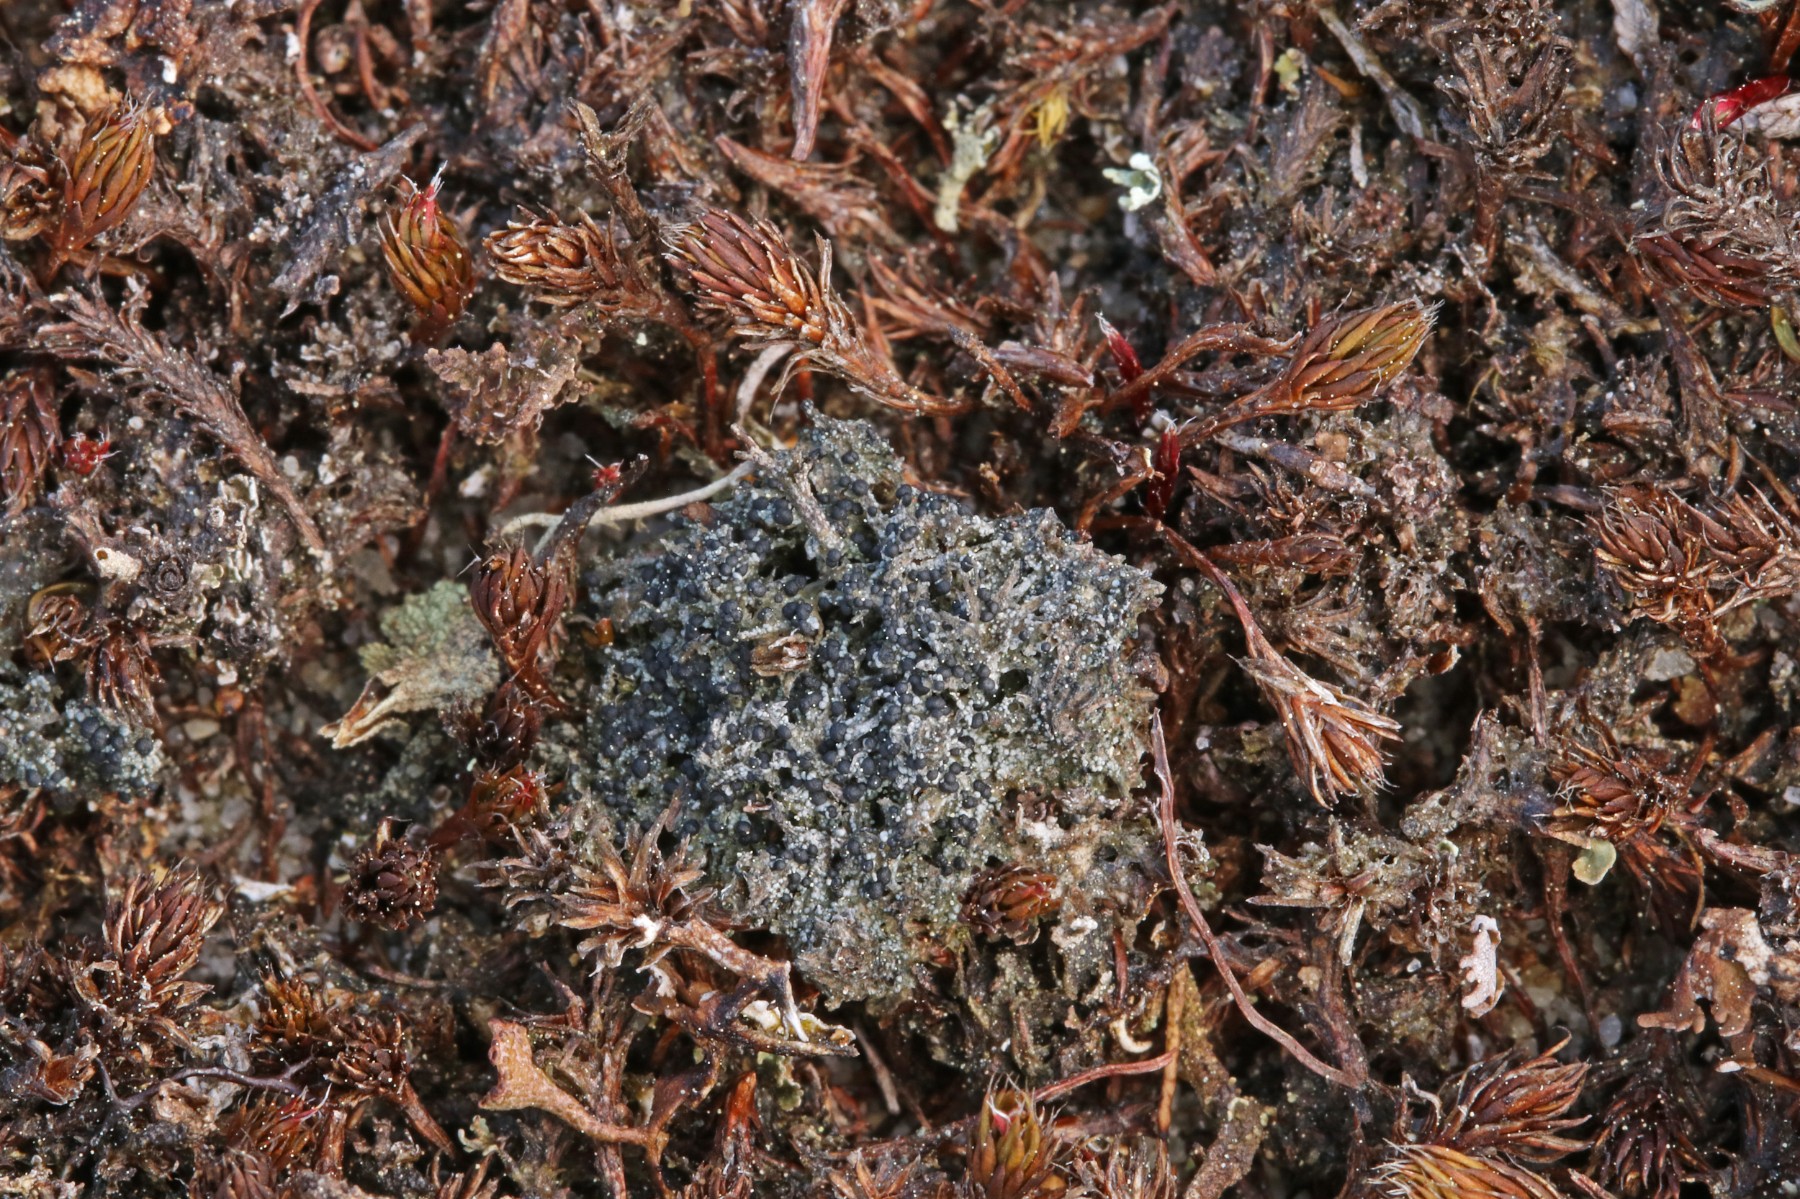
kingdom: Fungi
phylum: Ascomycota
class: Lecanoromycetes
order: Lecanorales
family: Byssolomataceae
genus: Micarea
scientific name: Micarea lignaria
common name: tørve-knaplav
